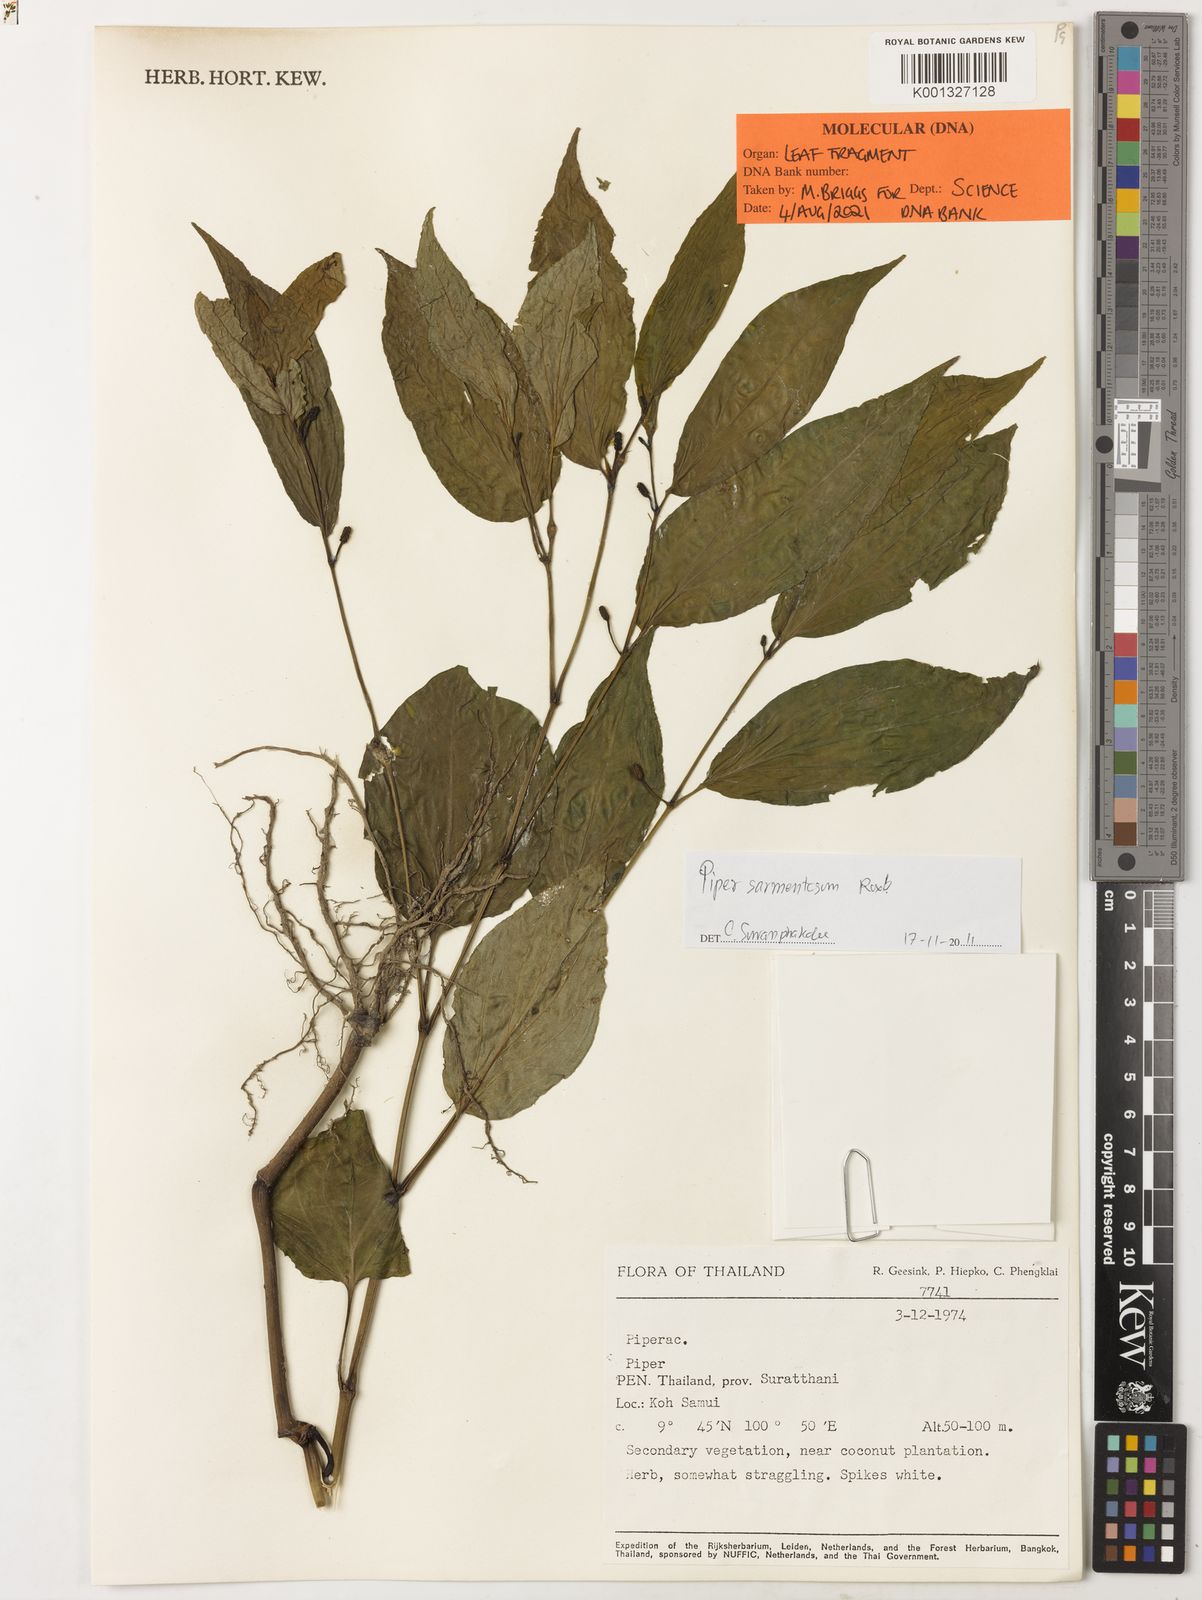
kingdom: Plantae
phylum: Tracheophyta
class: Magnoliopsida
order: Piperales
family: Piperaceae
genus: Piper
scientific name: Piper sarmentosum
